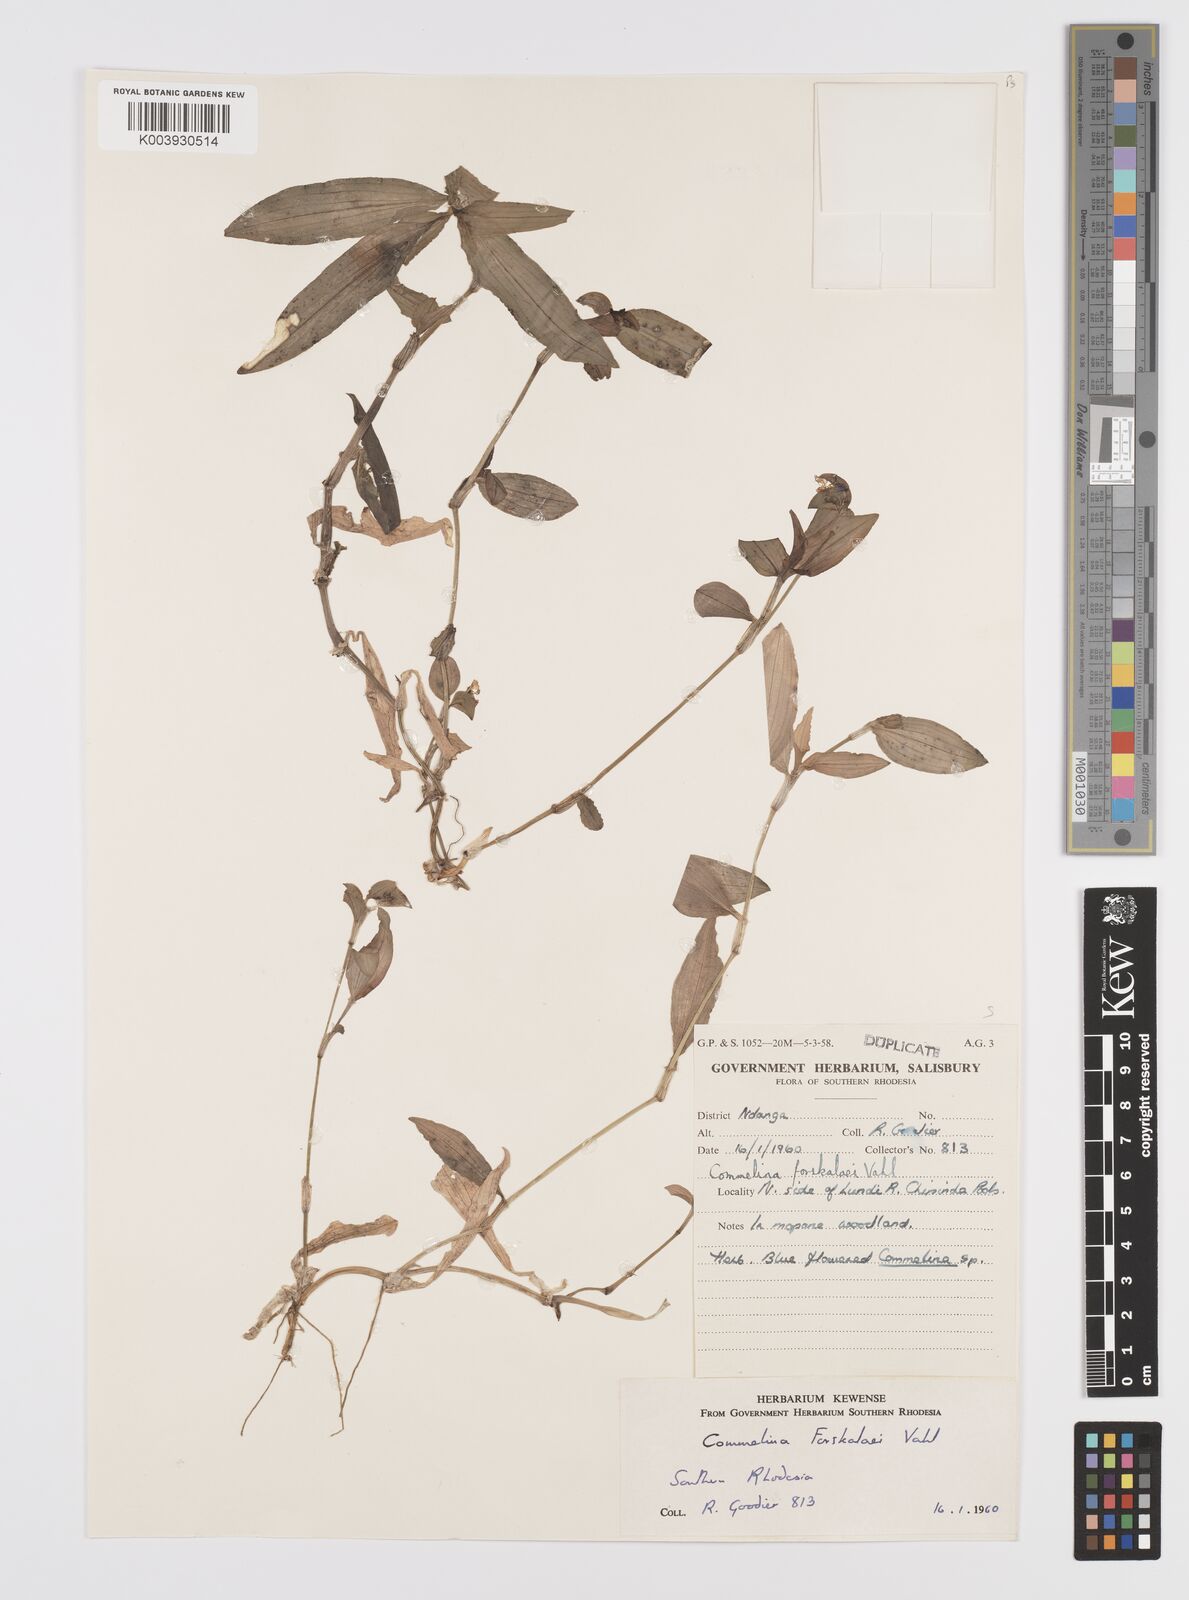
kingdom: Plantae
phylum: Tracheophyta
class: Liliopsida
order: Commelinales
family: Commelinaceae
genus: Commelina
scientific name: Commelina forskaolii
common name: Rat's ear
